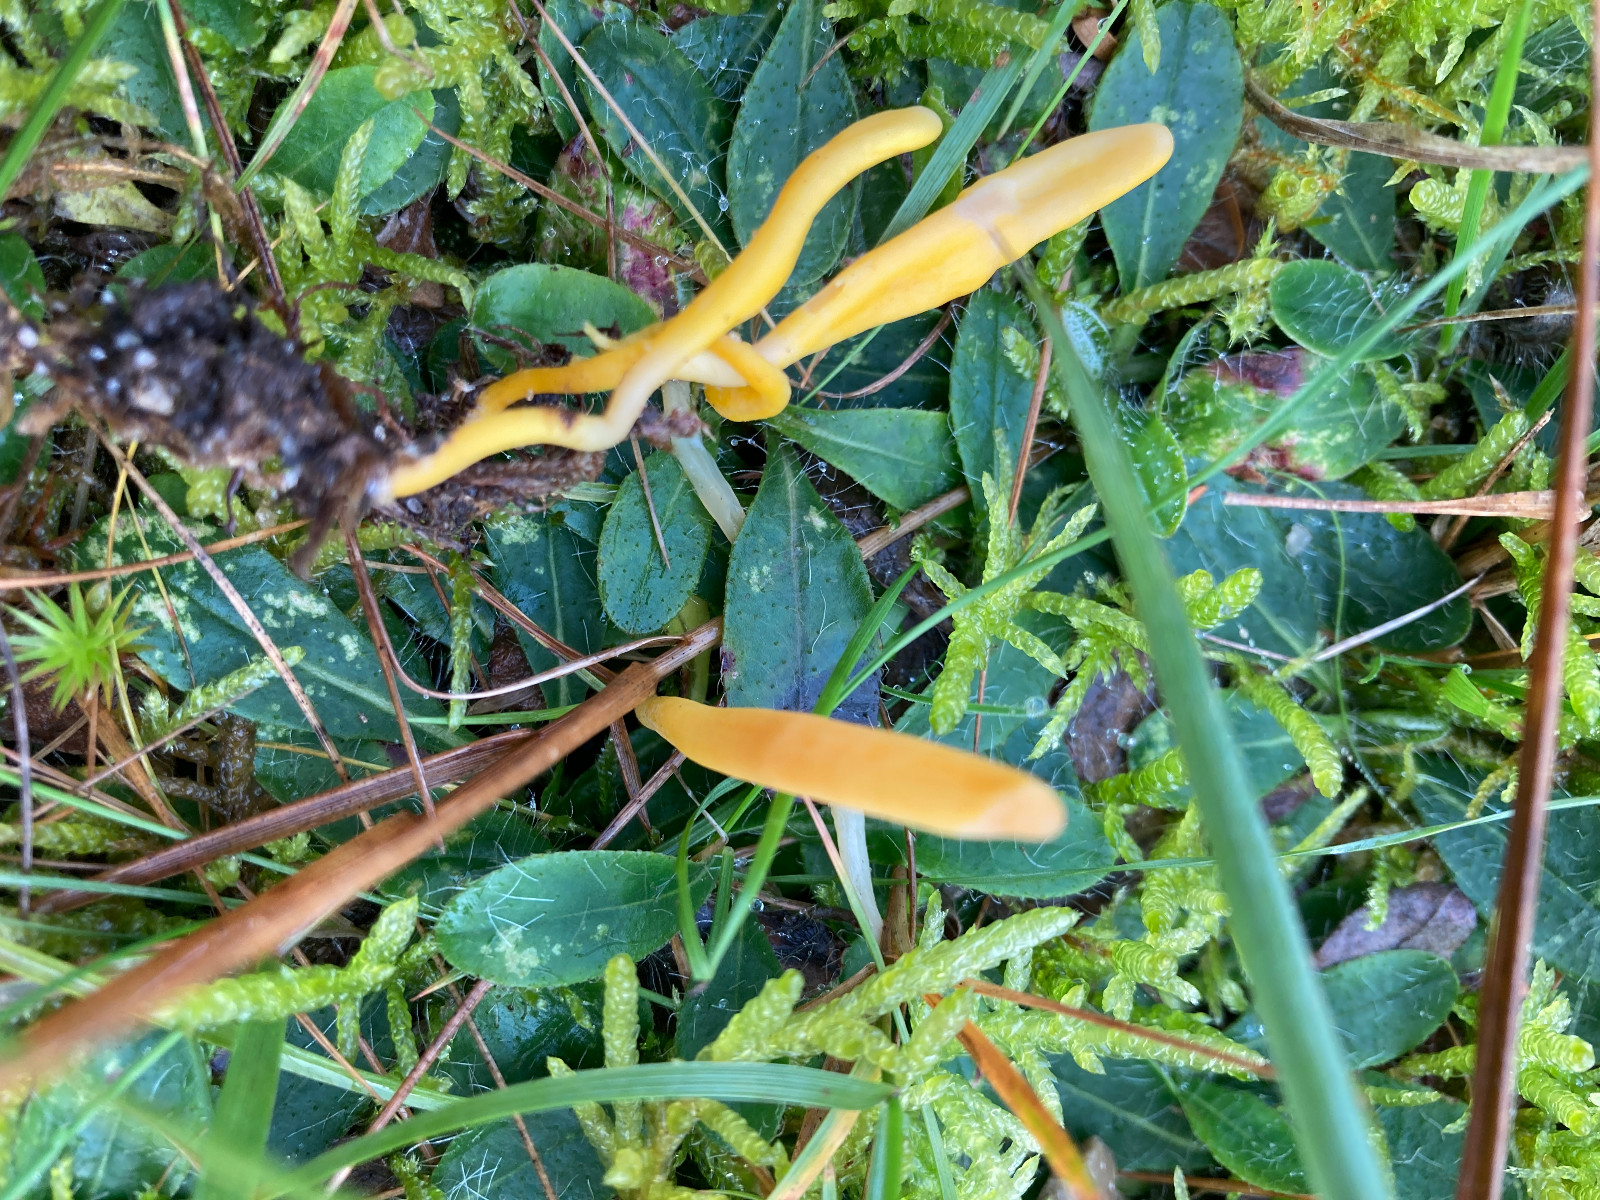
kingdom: Fungi
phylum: Basidiomycota
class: Agaricomycetes
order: Agaricales
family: Clavariaceae
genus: Clavulinopsis
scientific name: Clavulinopsis helvola
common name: orangegul køllesvamp
